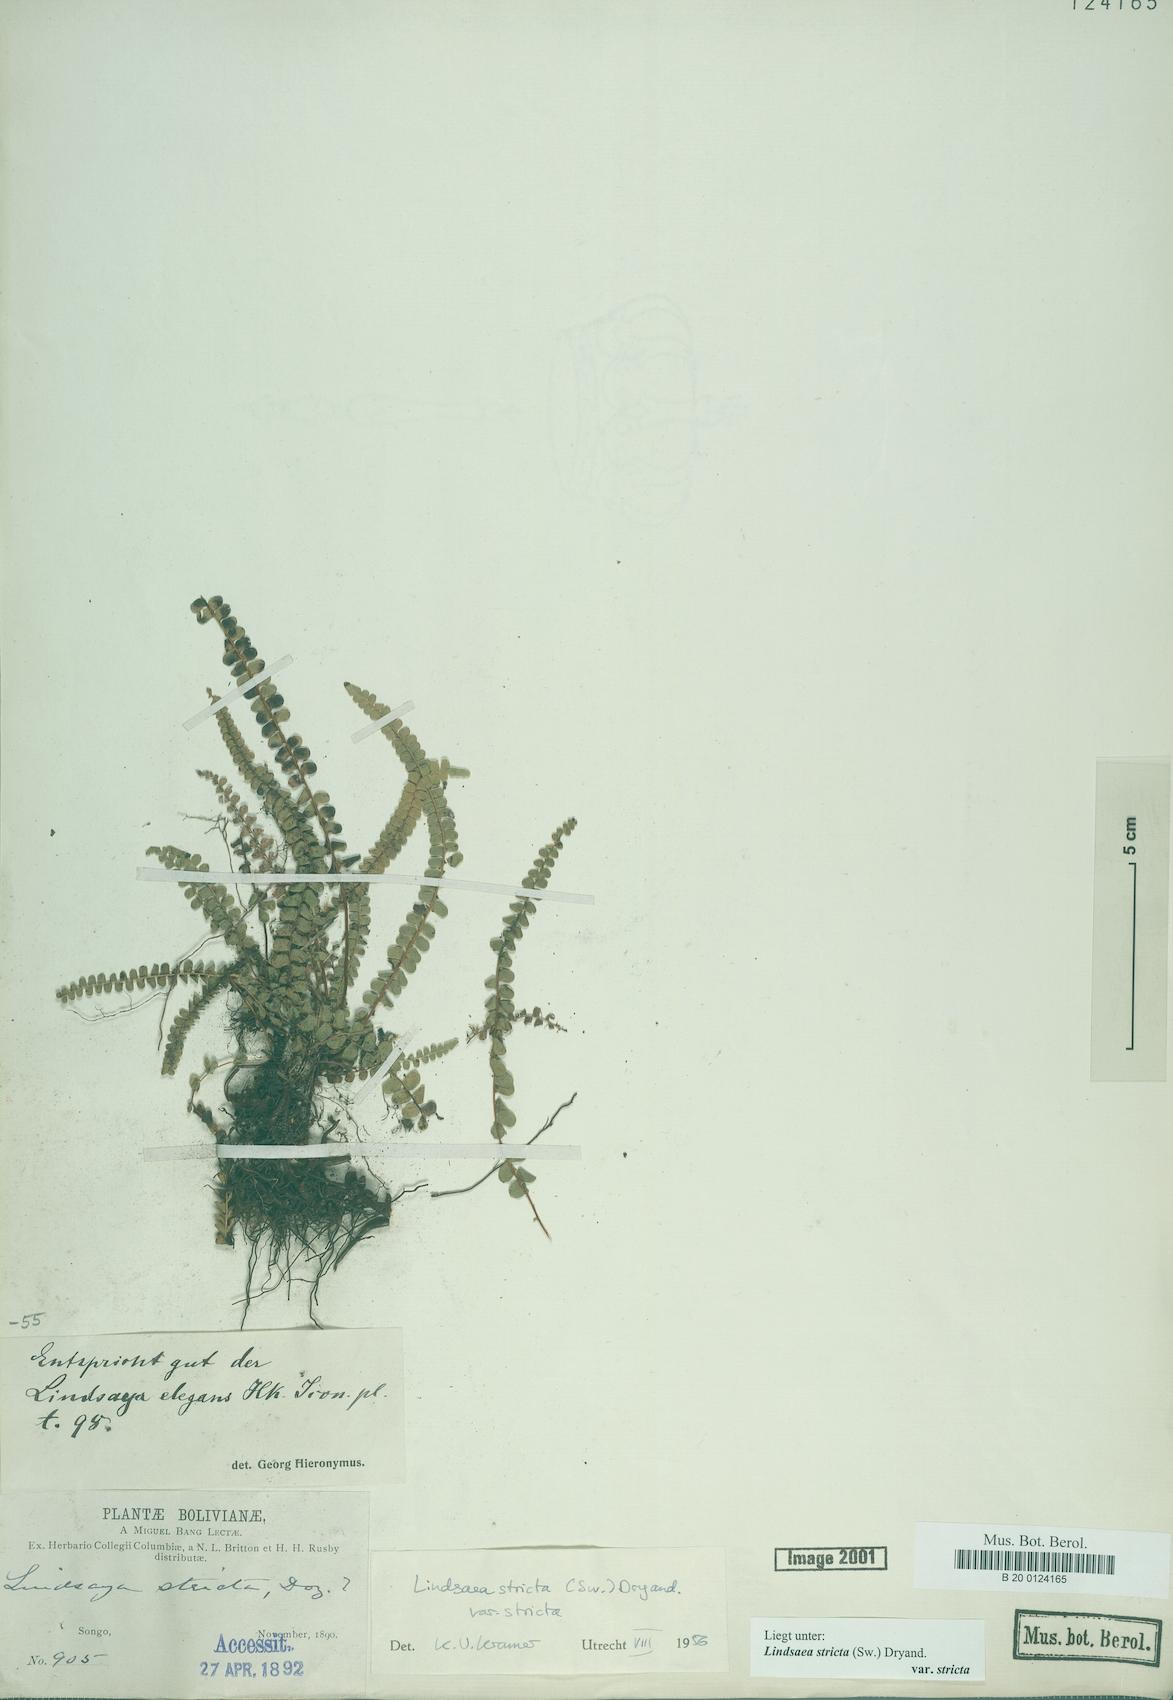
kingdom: Plantae
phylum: Tracheophyta
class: Polypodiopsida
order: Polypodiales
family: Lindsaeaceae
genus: Lindsaea
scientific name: Lindsaea stricta
